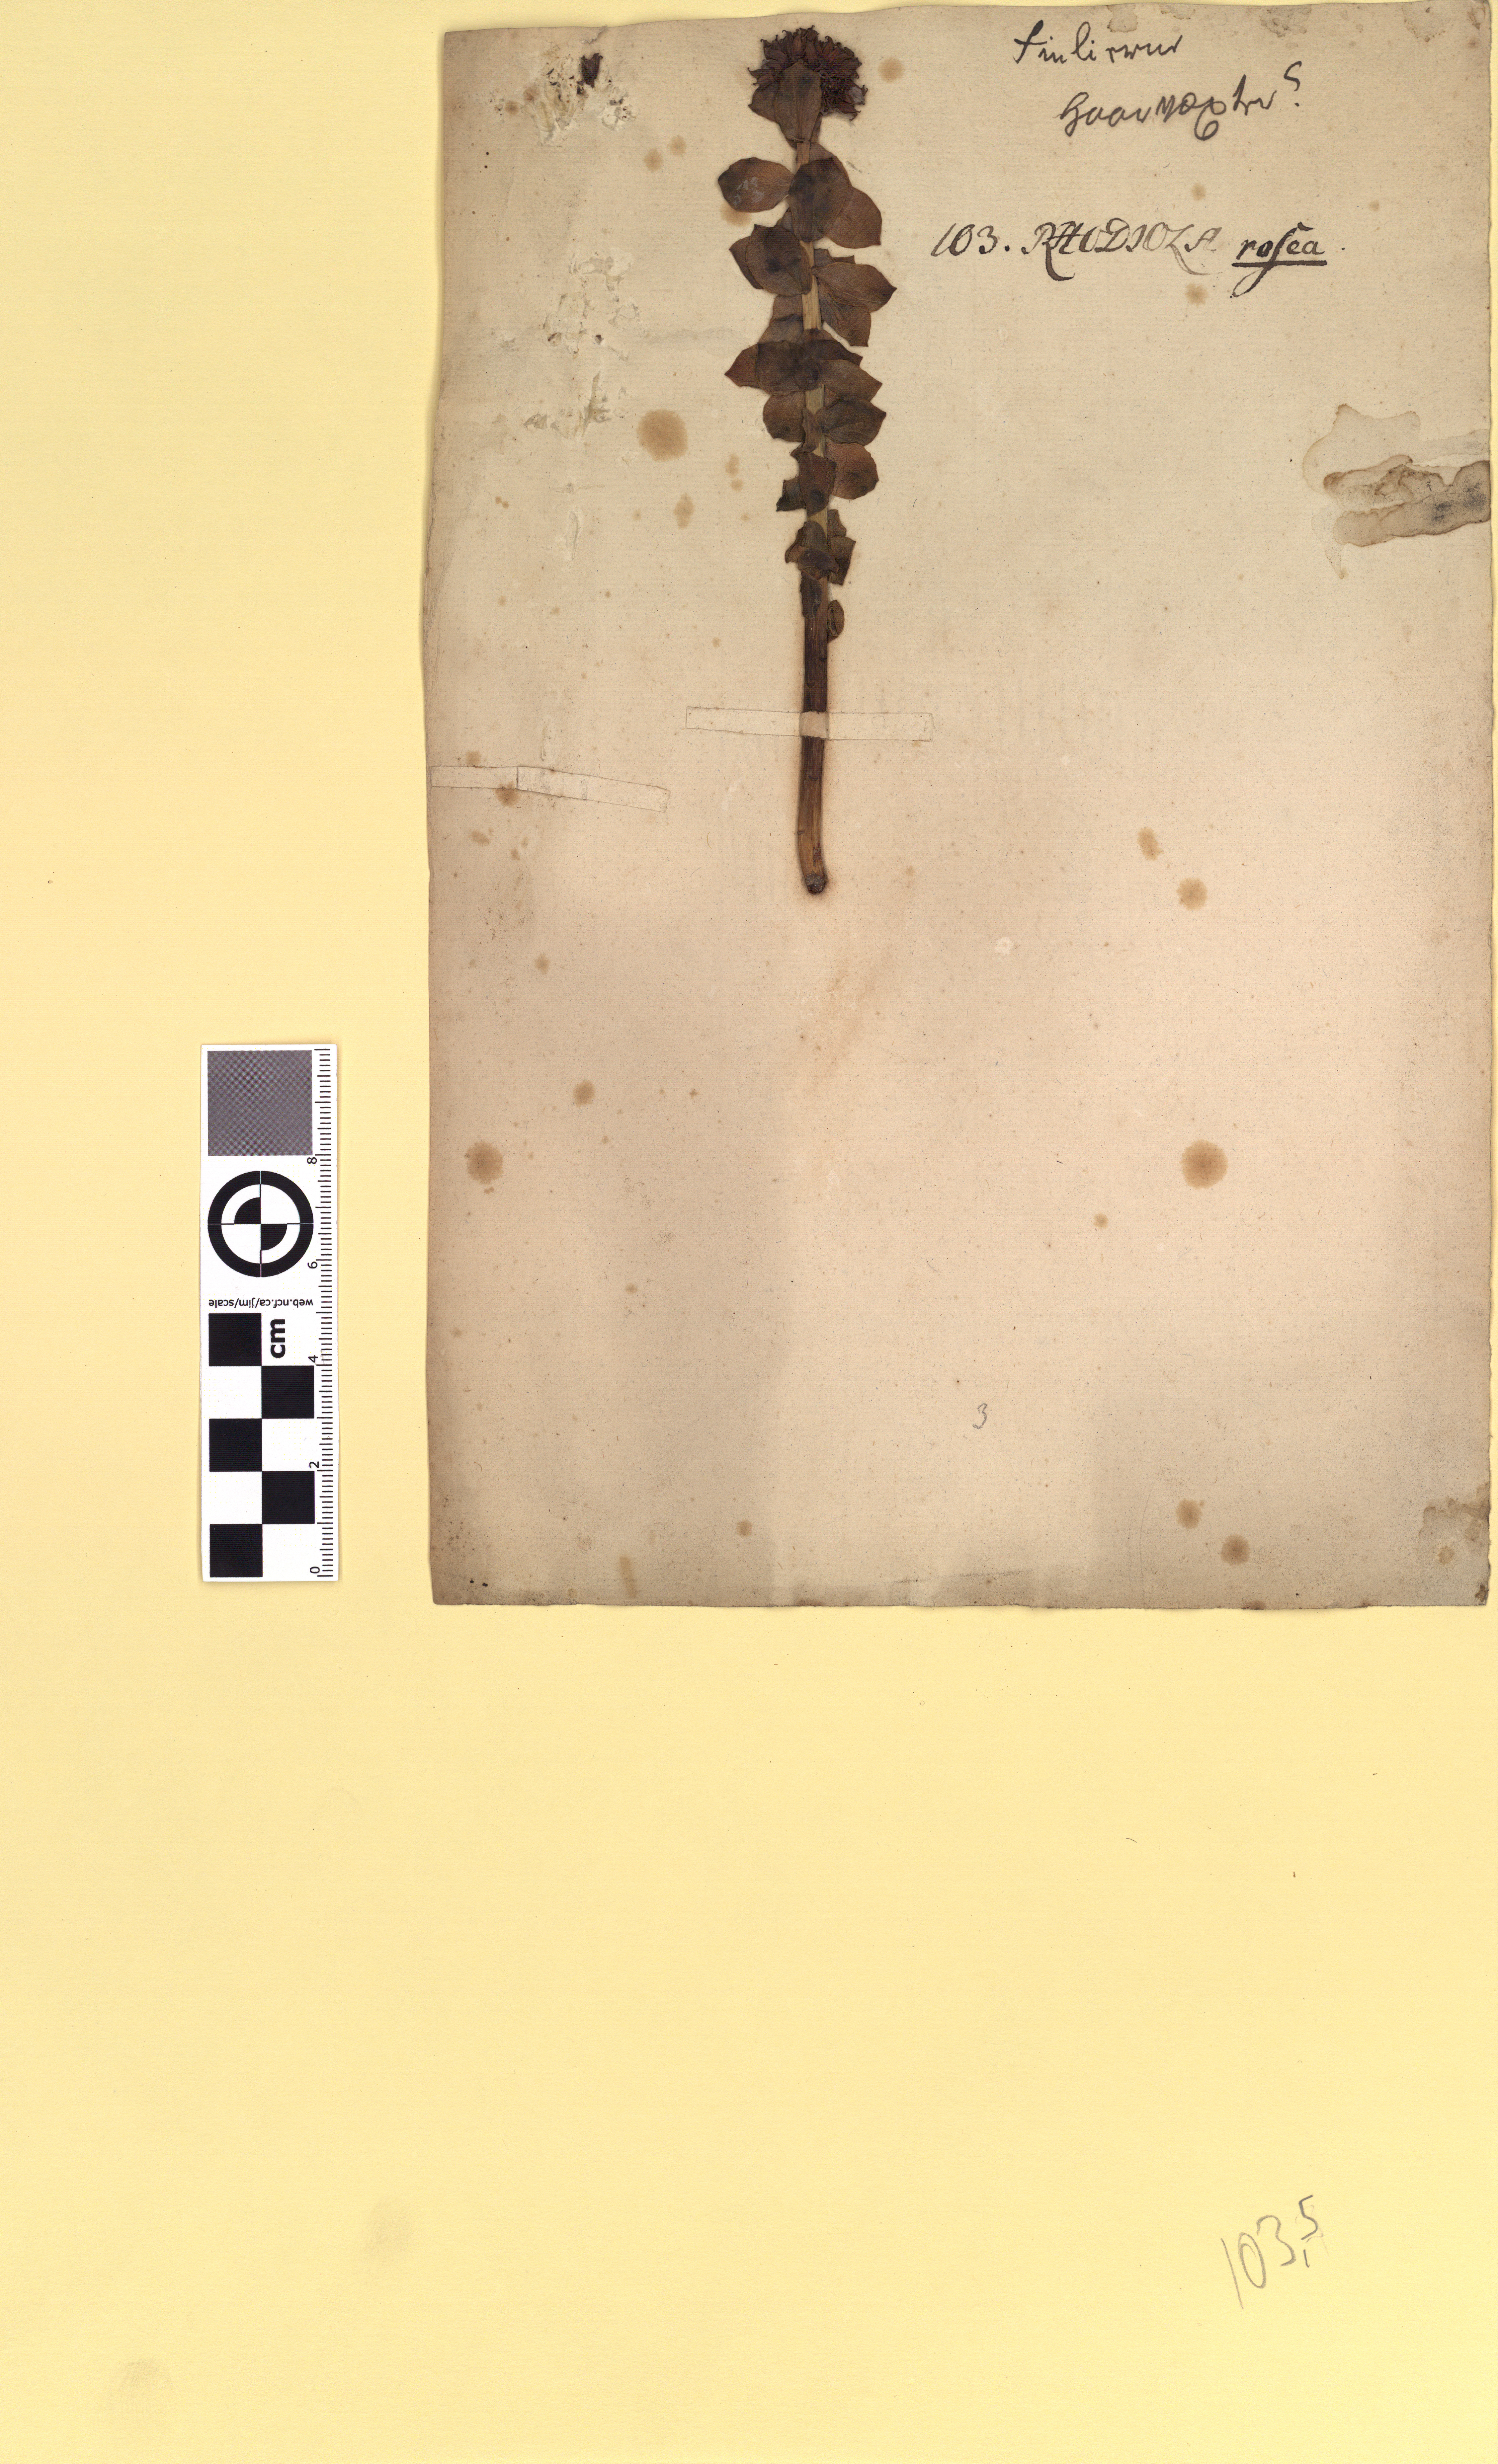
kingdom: Plantae
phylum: Tracheophyta
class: Magnoliopsida
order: Saxifragales
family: Crassulaceae
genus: Rhodiola
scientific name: Rhodiola rosea
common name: Roseroot
